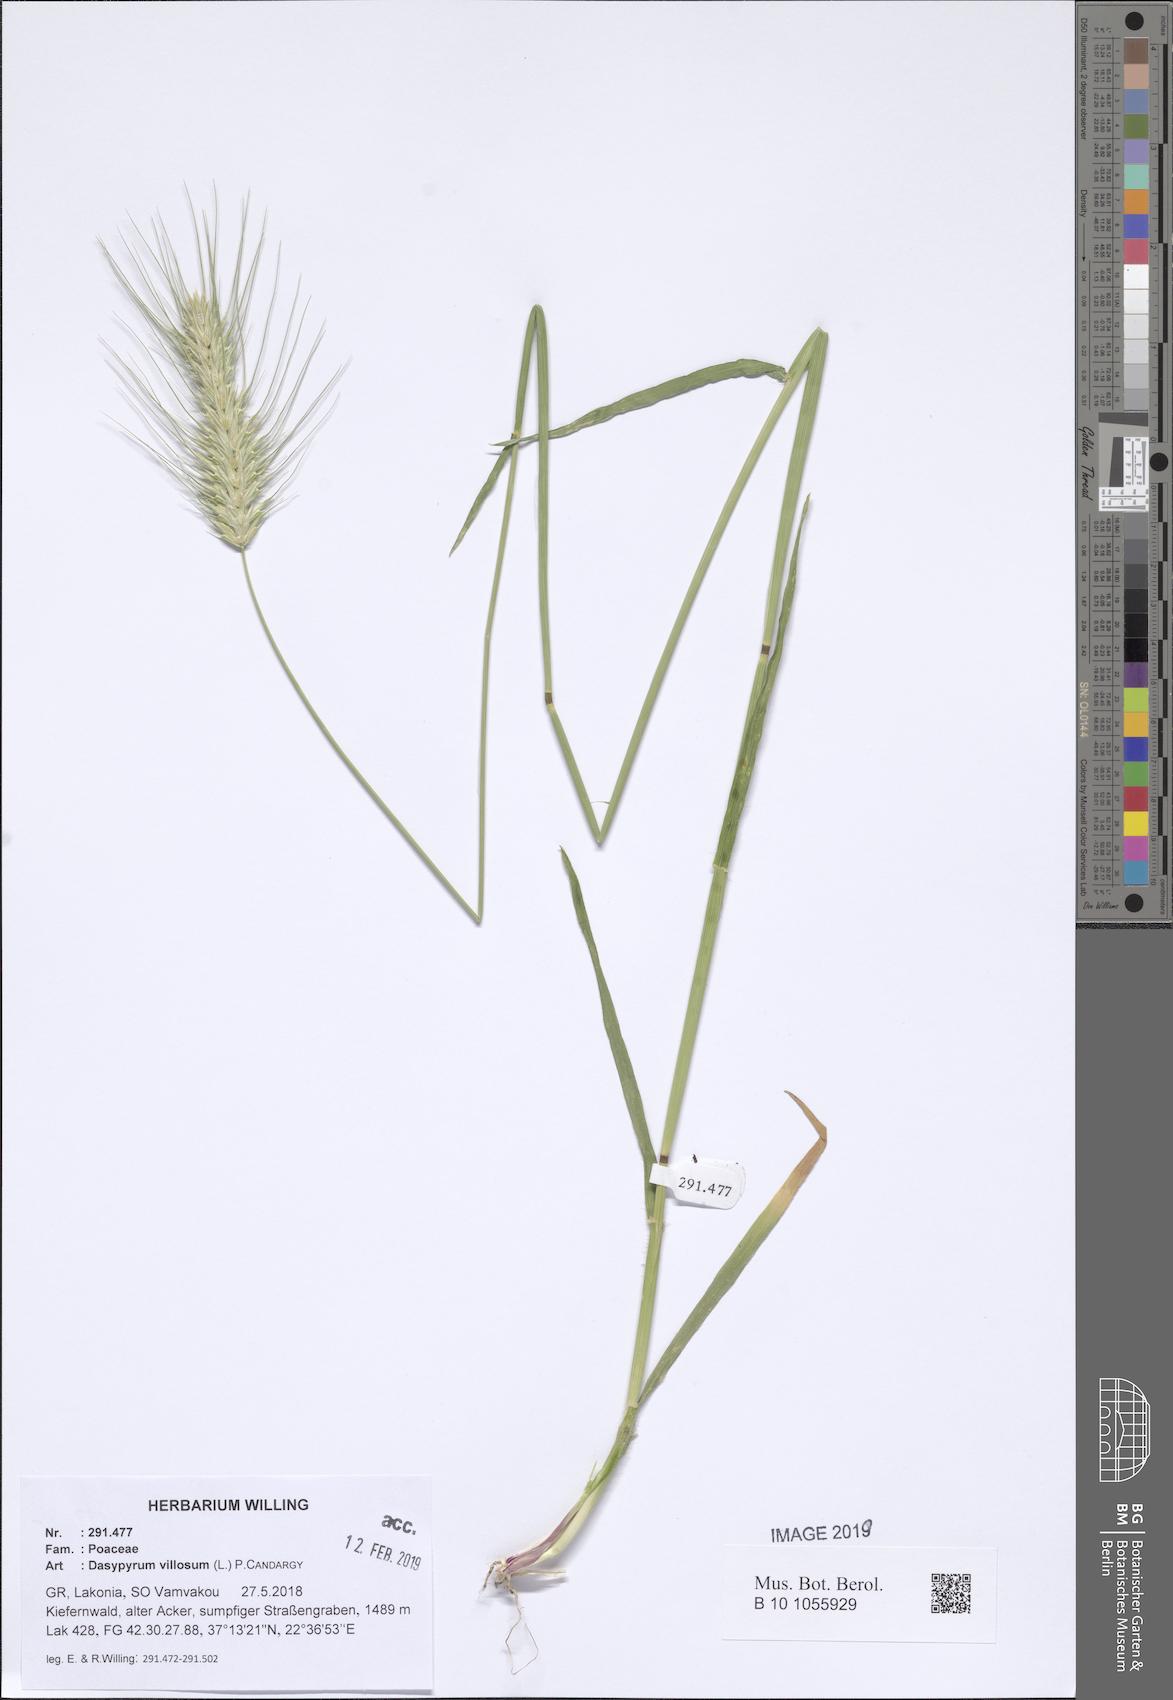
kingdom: Plantae
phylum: Tracheophyta
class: Liliopsida
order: Poales
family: Poaceae
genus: Dasypyrum
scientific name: Dasypyrum villosum
